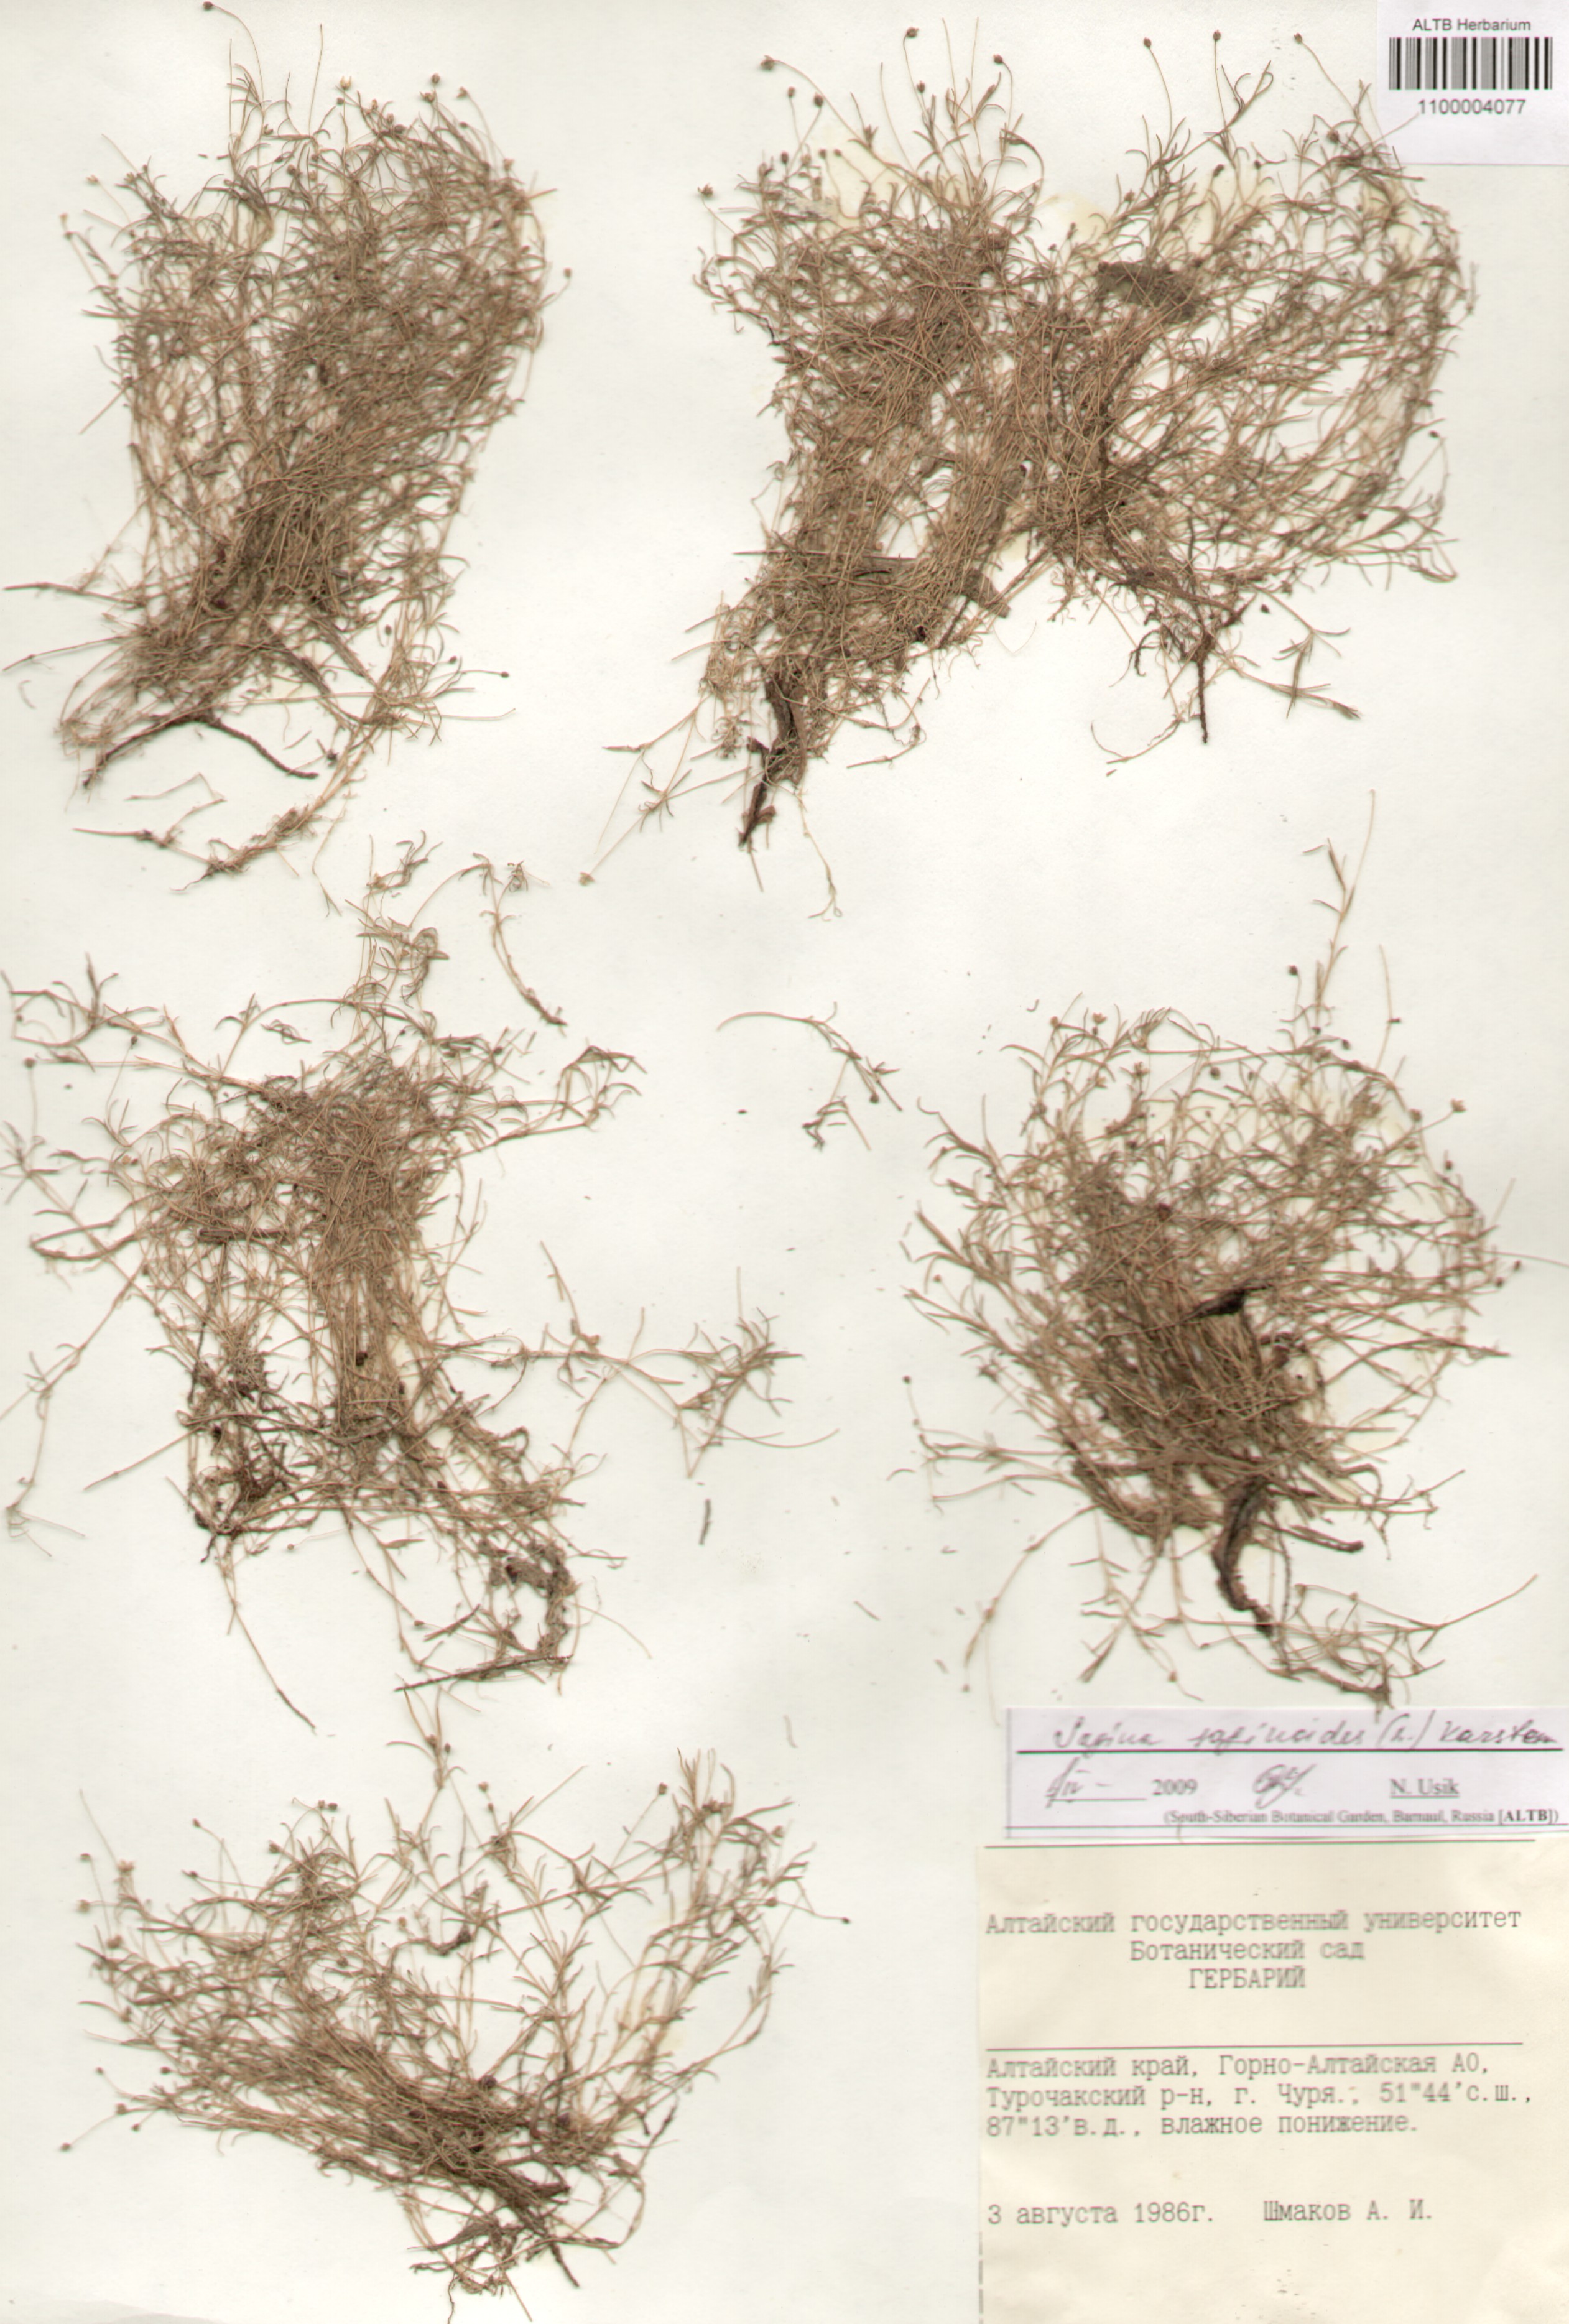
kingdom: Plantae
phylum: Tracheophyta
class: Magnoliopsida
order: Caryophyllales
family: Caryophyllaceae
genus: Sagina
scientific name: Sagina saginoides
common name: Alpine pearlwort
